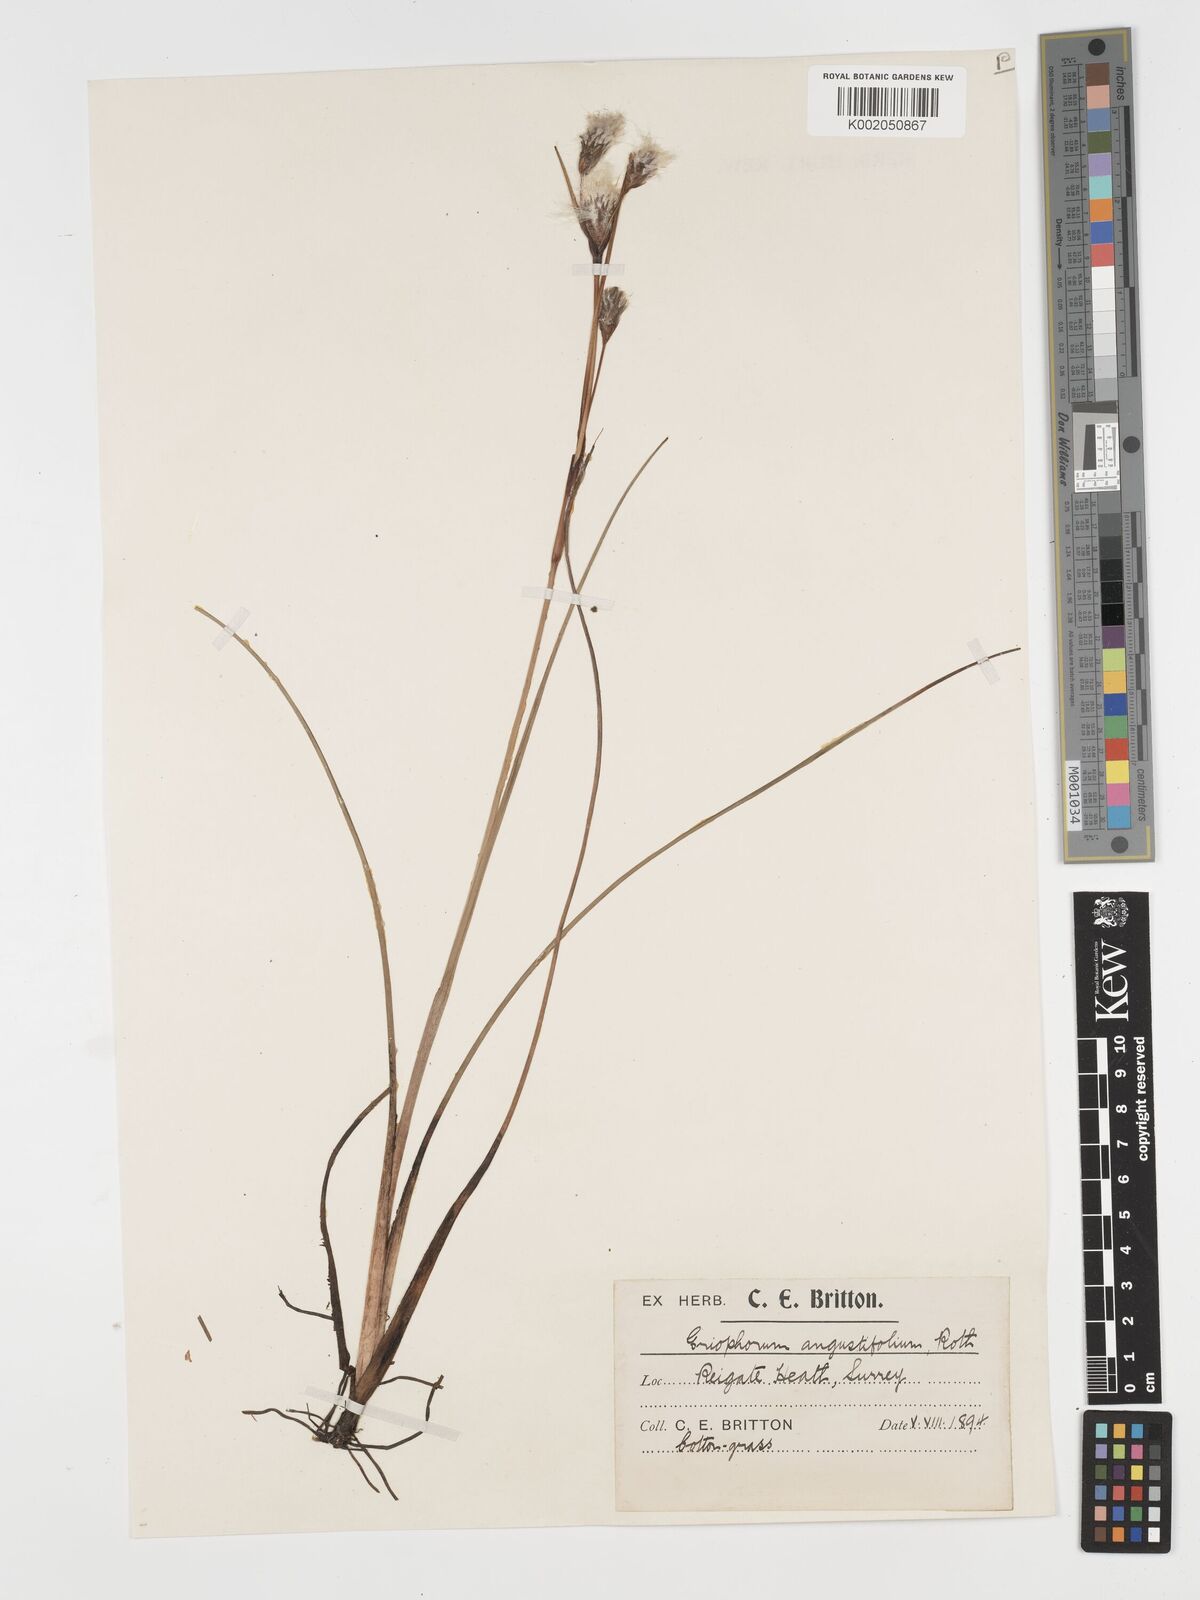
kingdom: Plantae
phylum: Tracheophyta
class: Liliopsida
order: Poales
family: Cyperaceae
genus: Eriophorum
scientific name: Eriophorum angustifolium
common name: Common cottongrass
